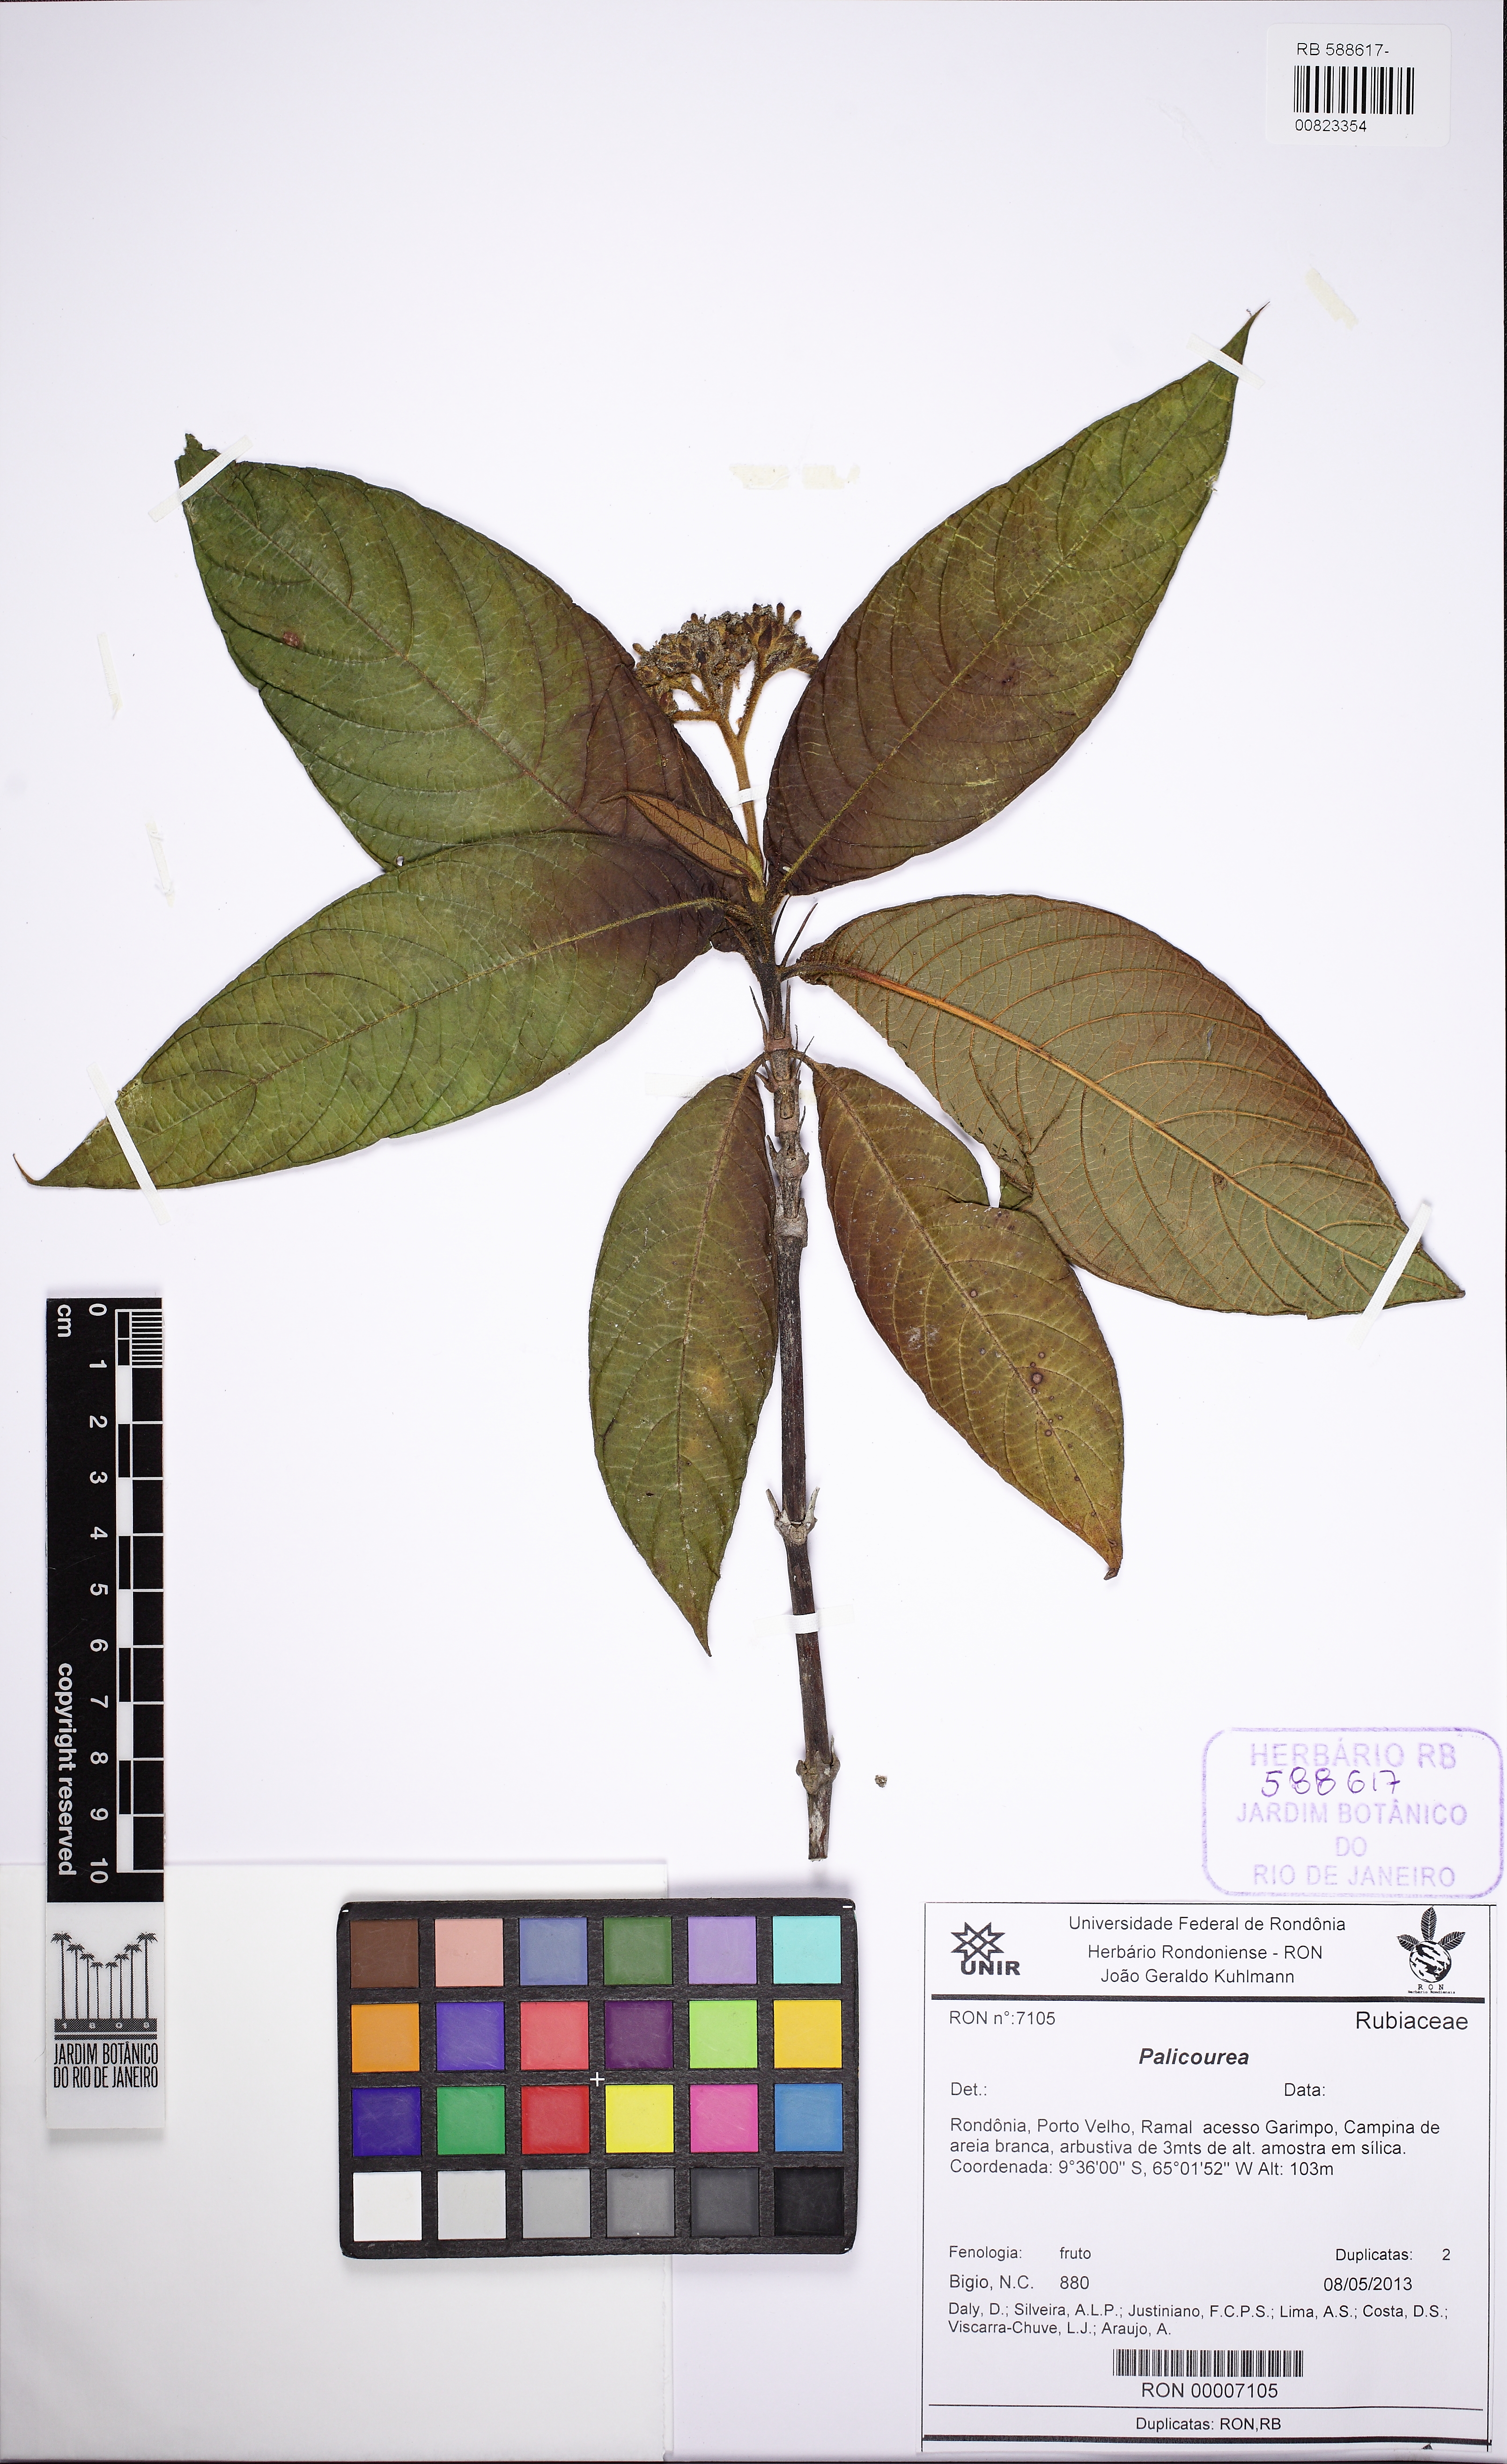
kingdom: Plantae
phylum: Tracheophyta
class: Magnoliopsida
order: Gentianales
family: Rubiaceae
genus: Palicourea
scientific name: Palicourea longistipulata
